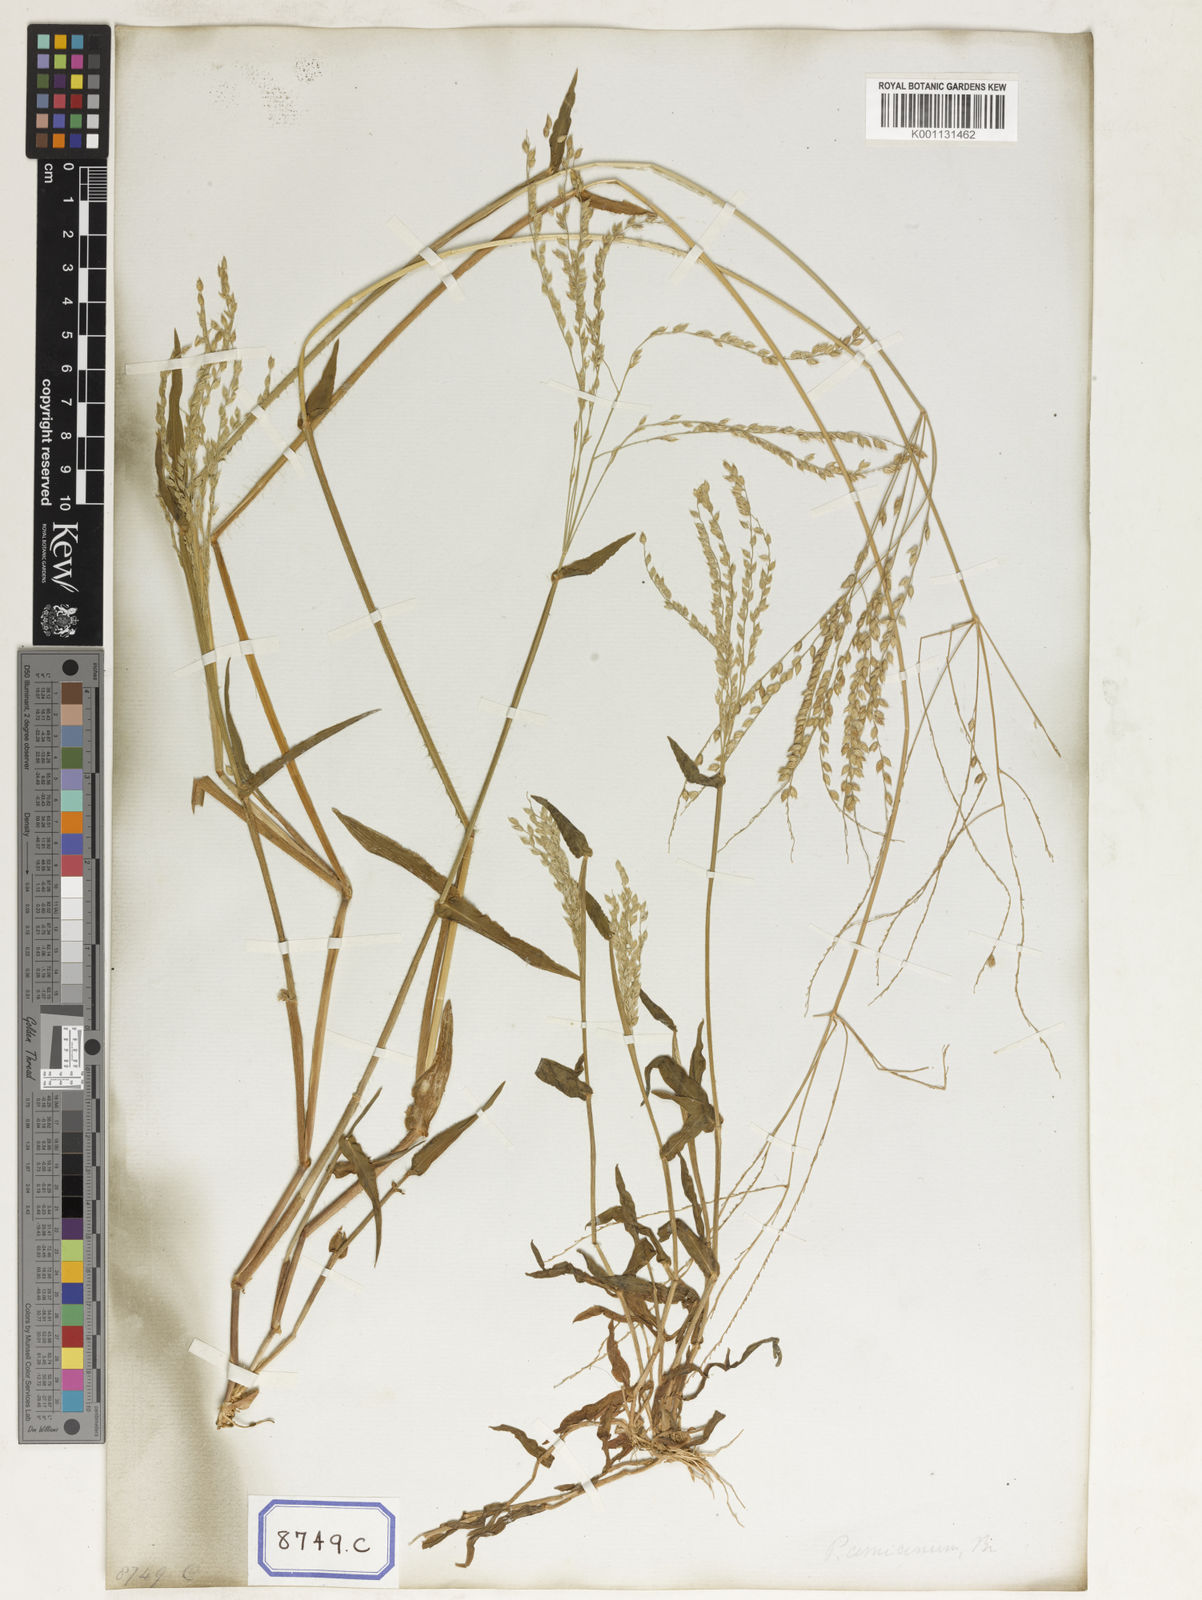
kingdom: Plantae
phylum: Tracheophyta
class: Liliopsida
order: Poales
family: Poaceae
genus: Alloteropsis
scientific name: Alloteropsis
